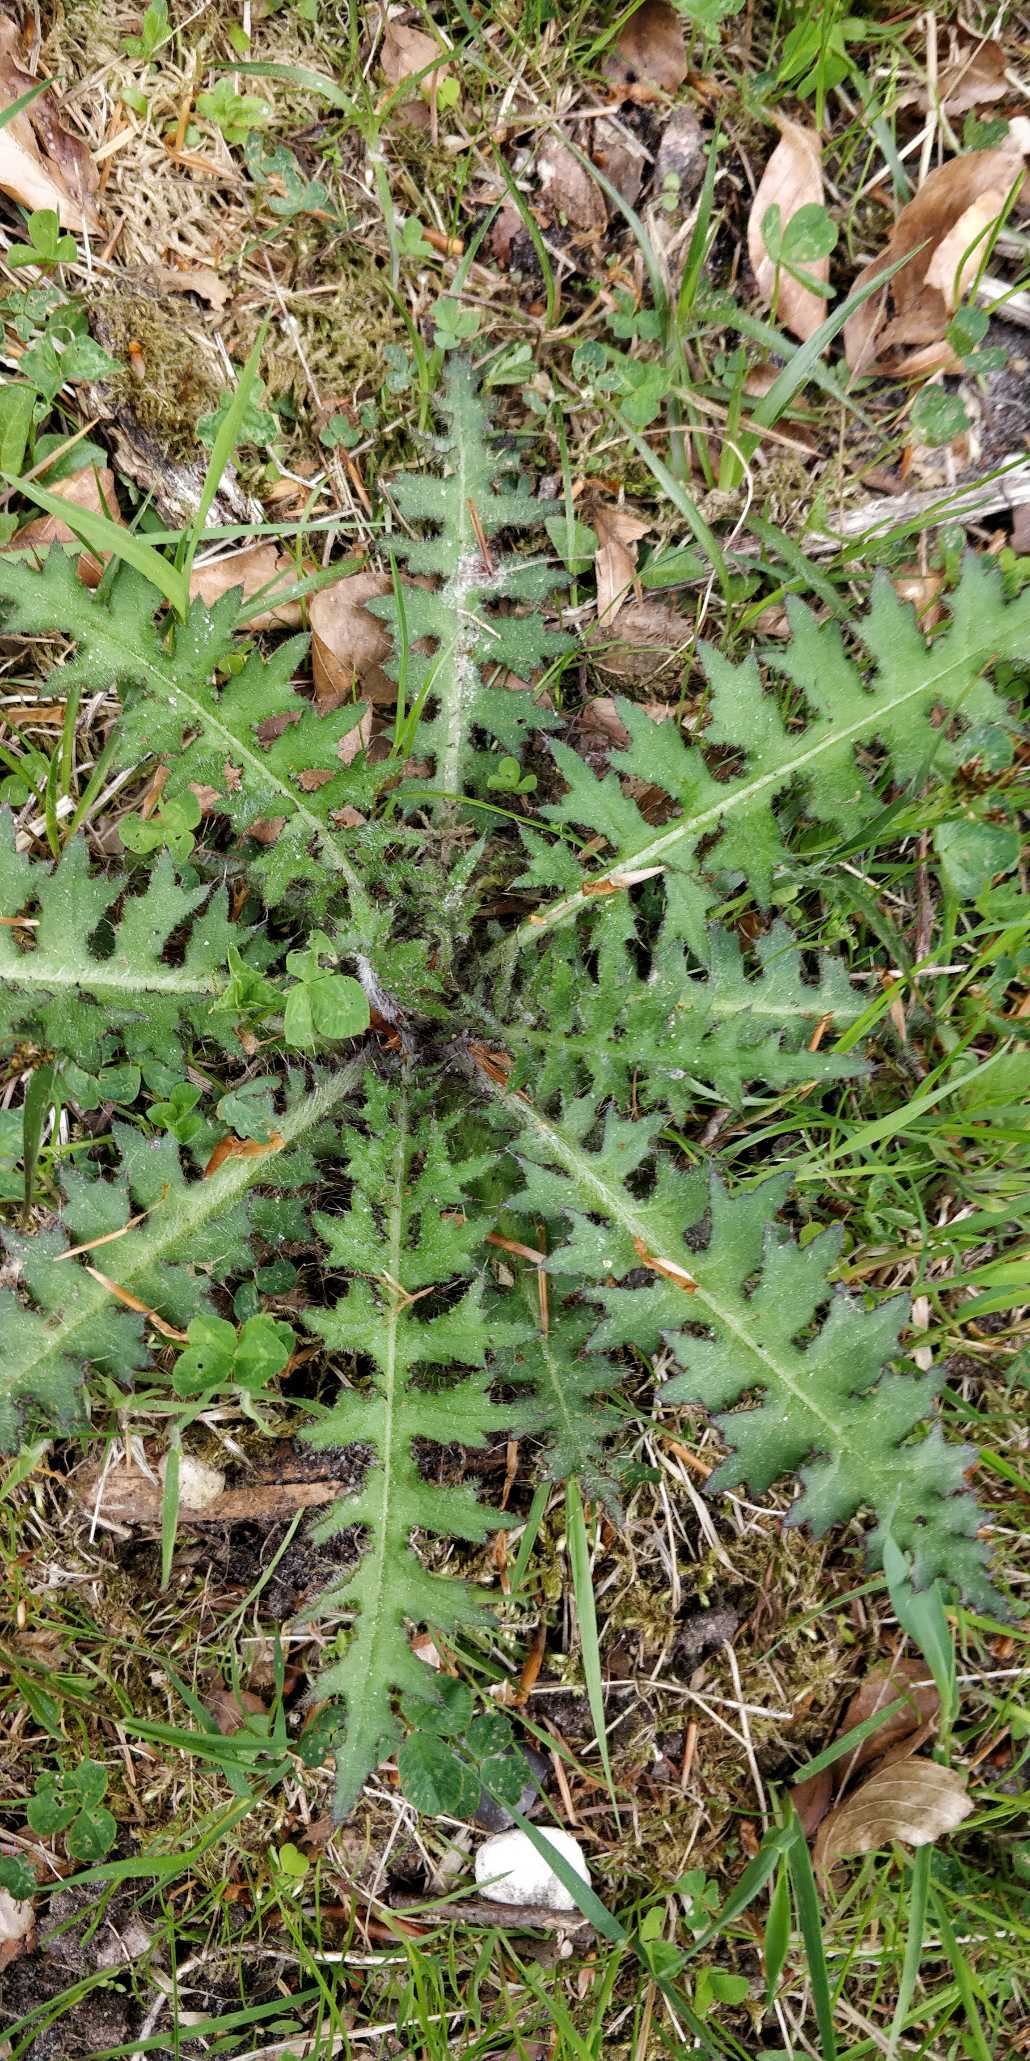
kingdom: Plantae
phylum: Tracheophyta
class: Magnoliopsida
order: Asterales
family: Asteraceae
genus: Cirsium
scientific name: Cirsium palustre
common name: Kær-tidsel
